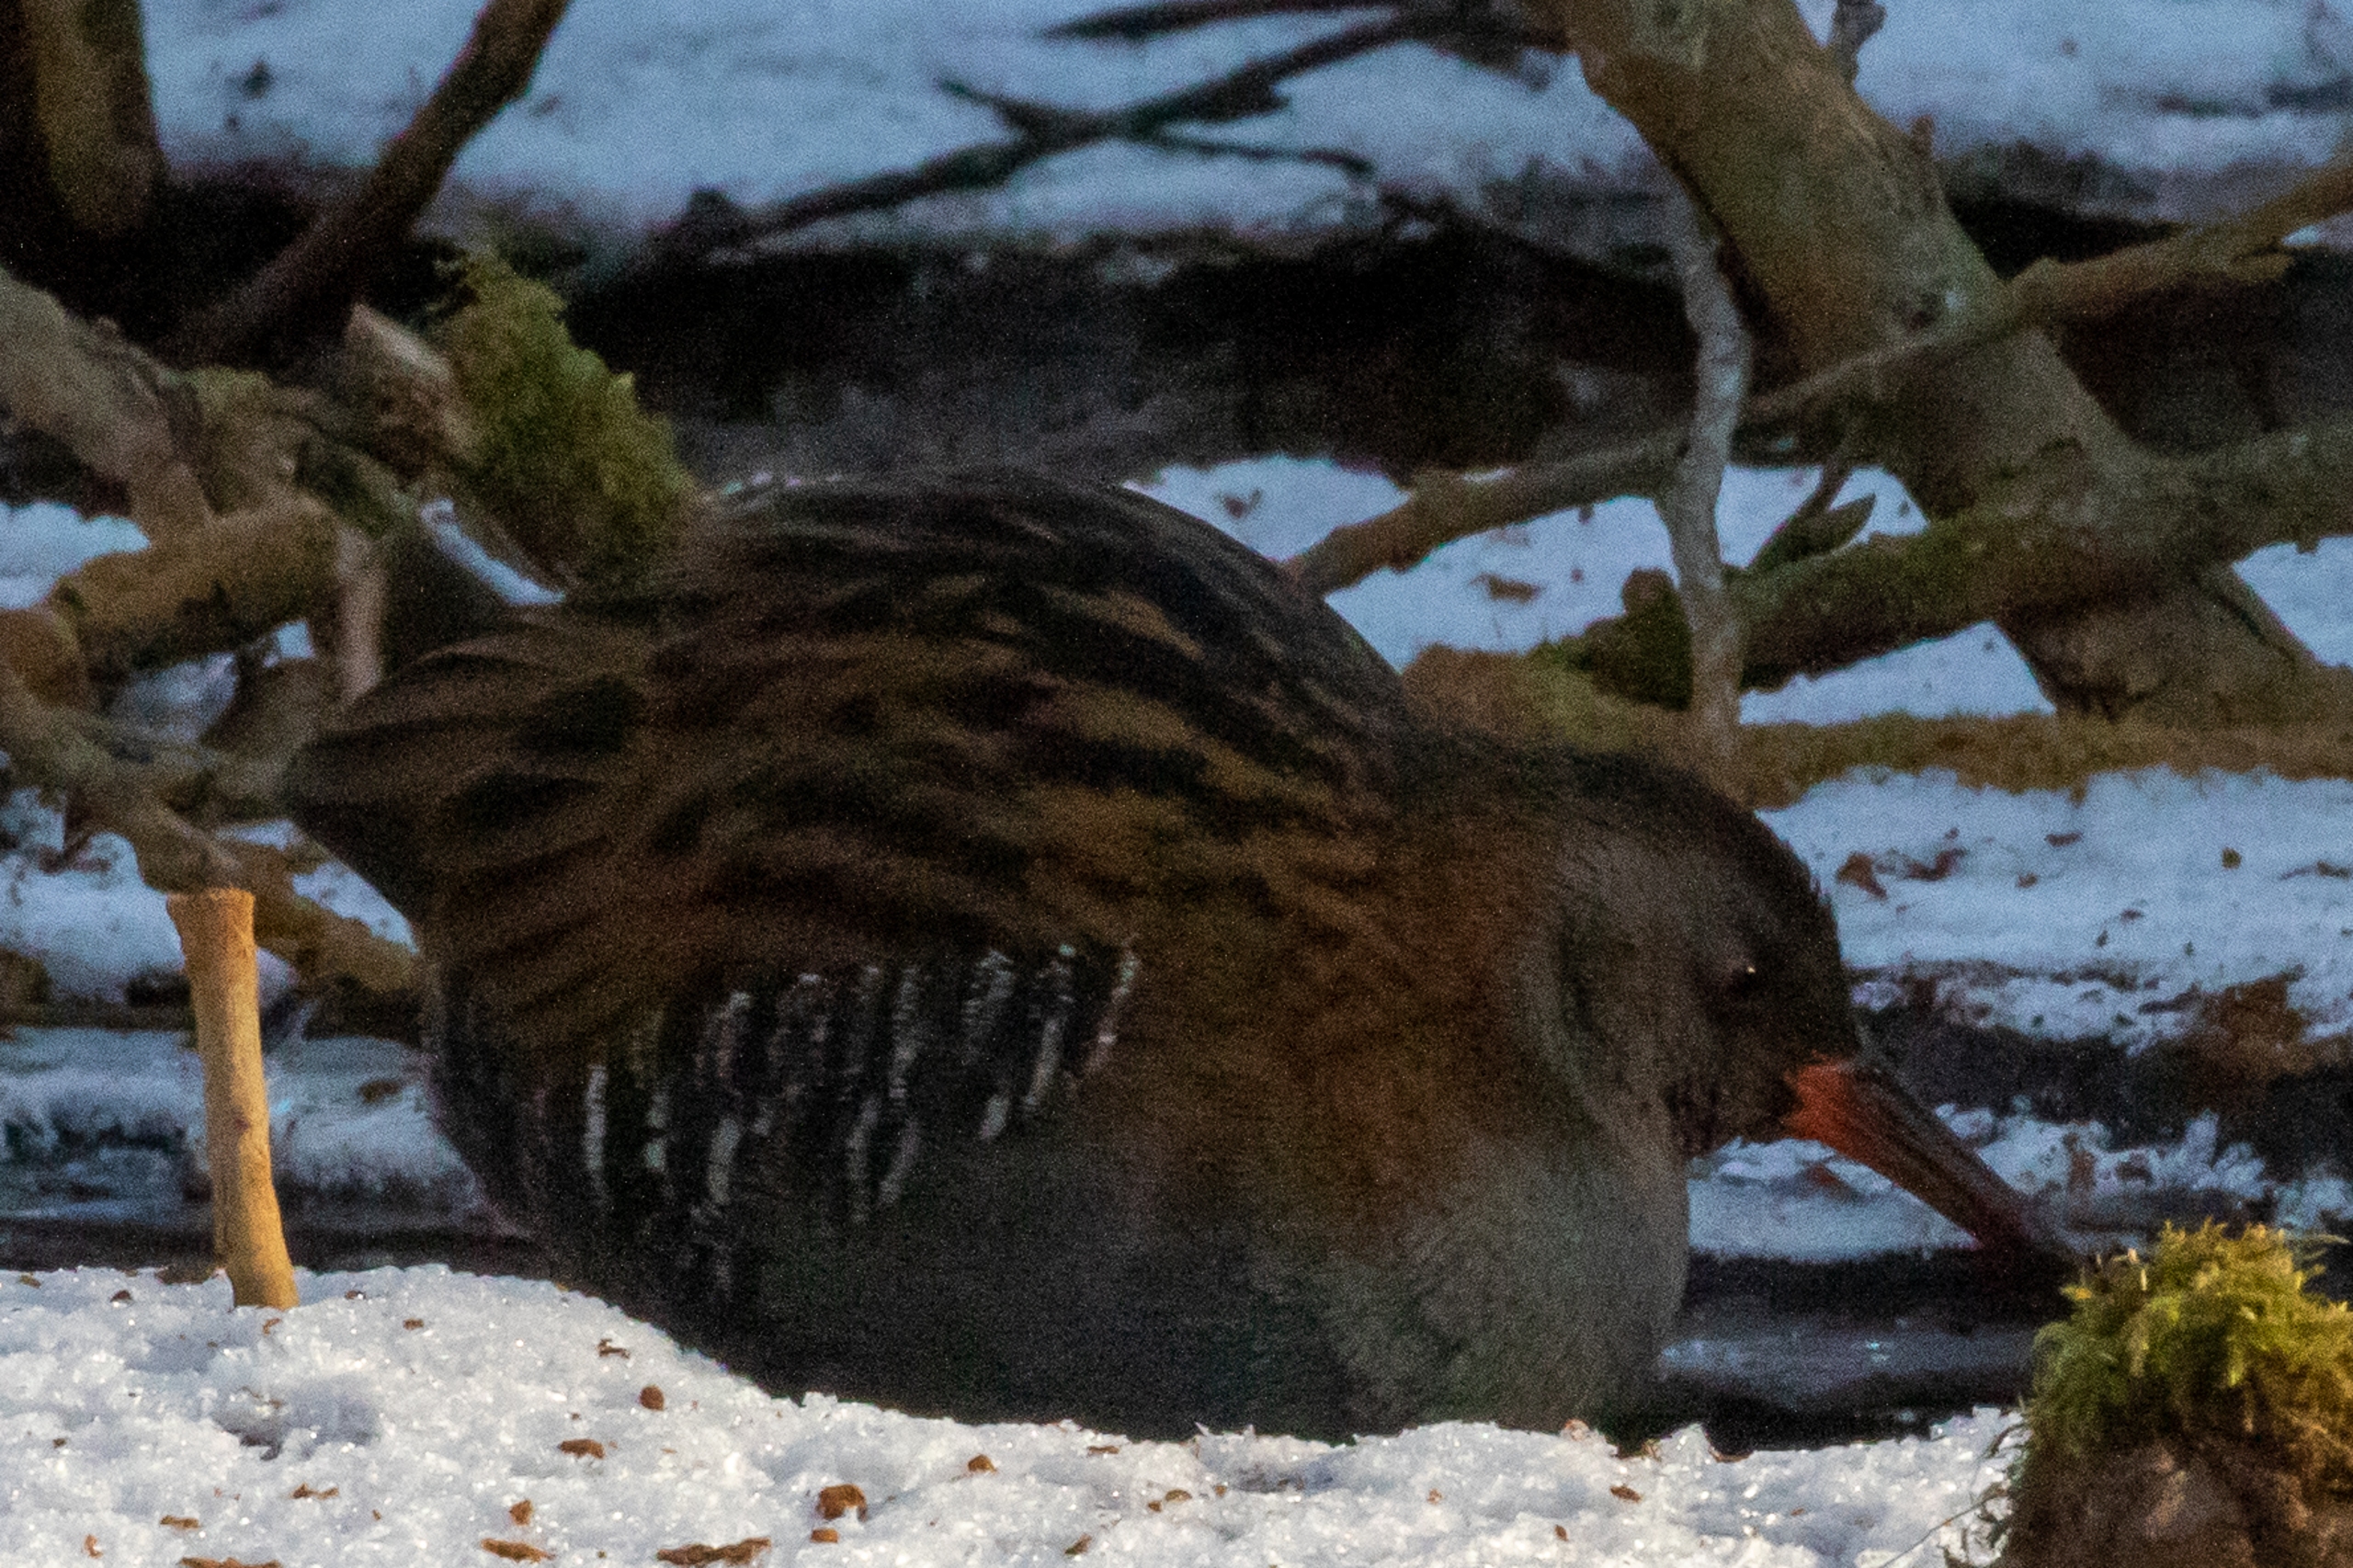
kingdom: Animalia
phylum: Chordata
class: Aves
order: Gruiformes
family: Rallidae
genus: Rallus
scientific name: Rallus aquaticus
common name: Vandrikse
